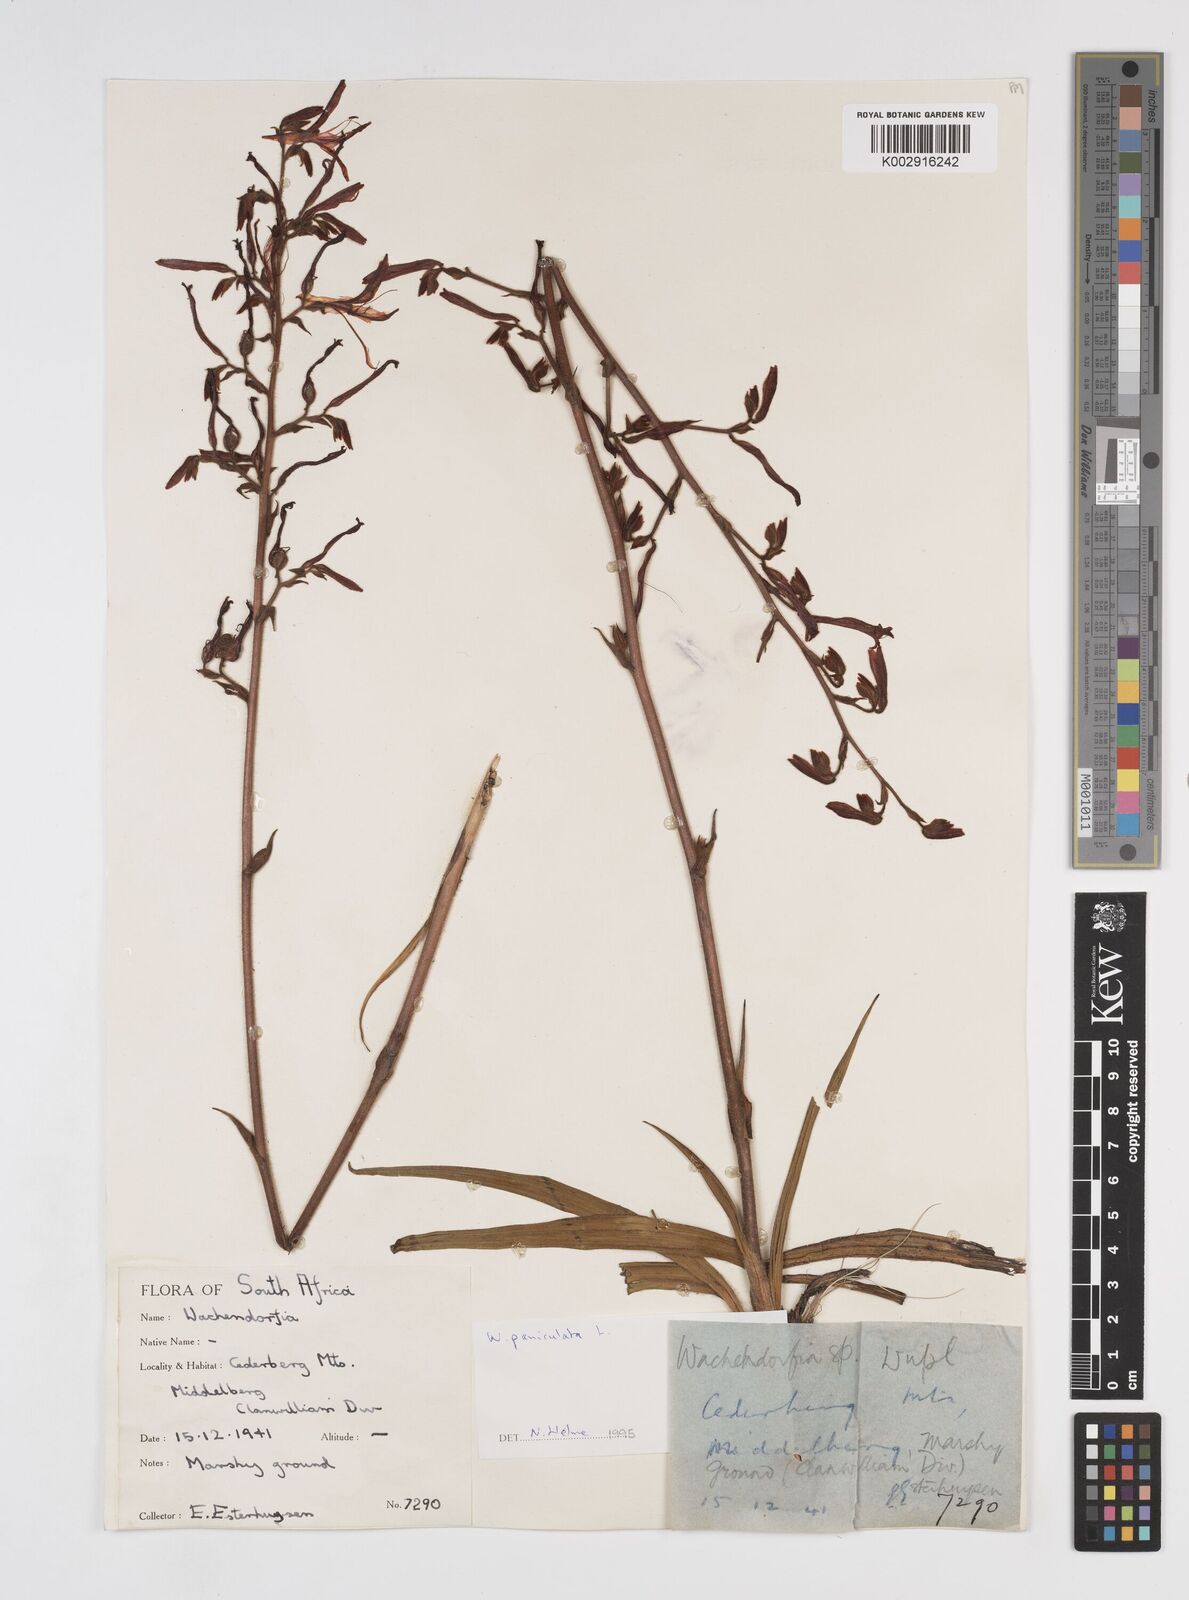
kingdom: Plantae
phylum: Tracheophyta
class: Liliopsida
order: Commelinales
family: Haemodoraceae
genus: Wachendorfia
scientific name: Wachendorfia paniculata
